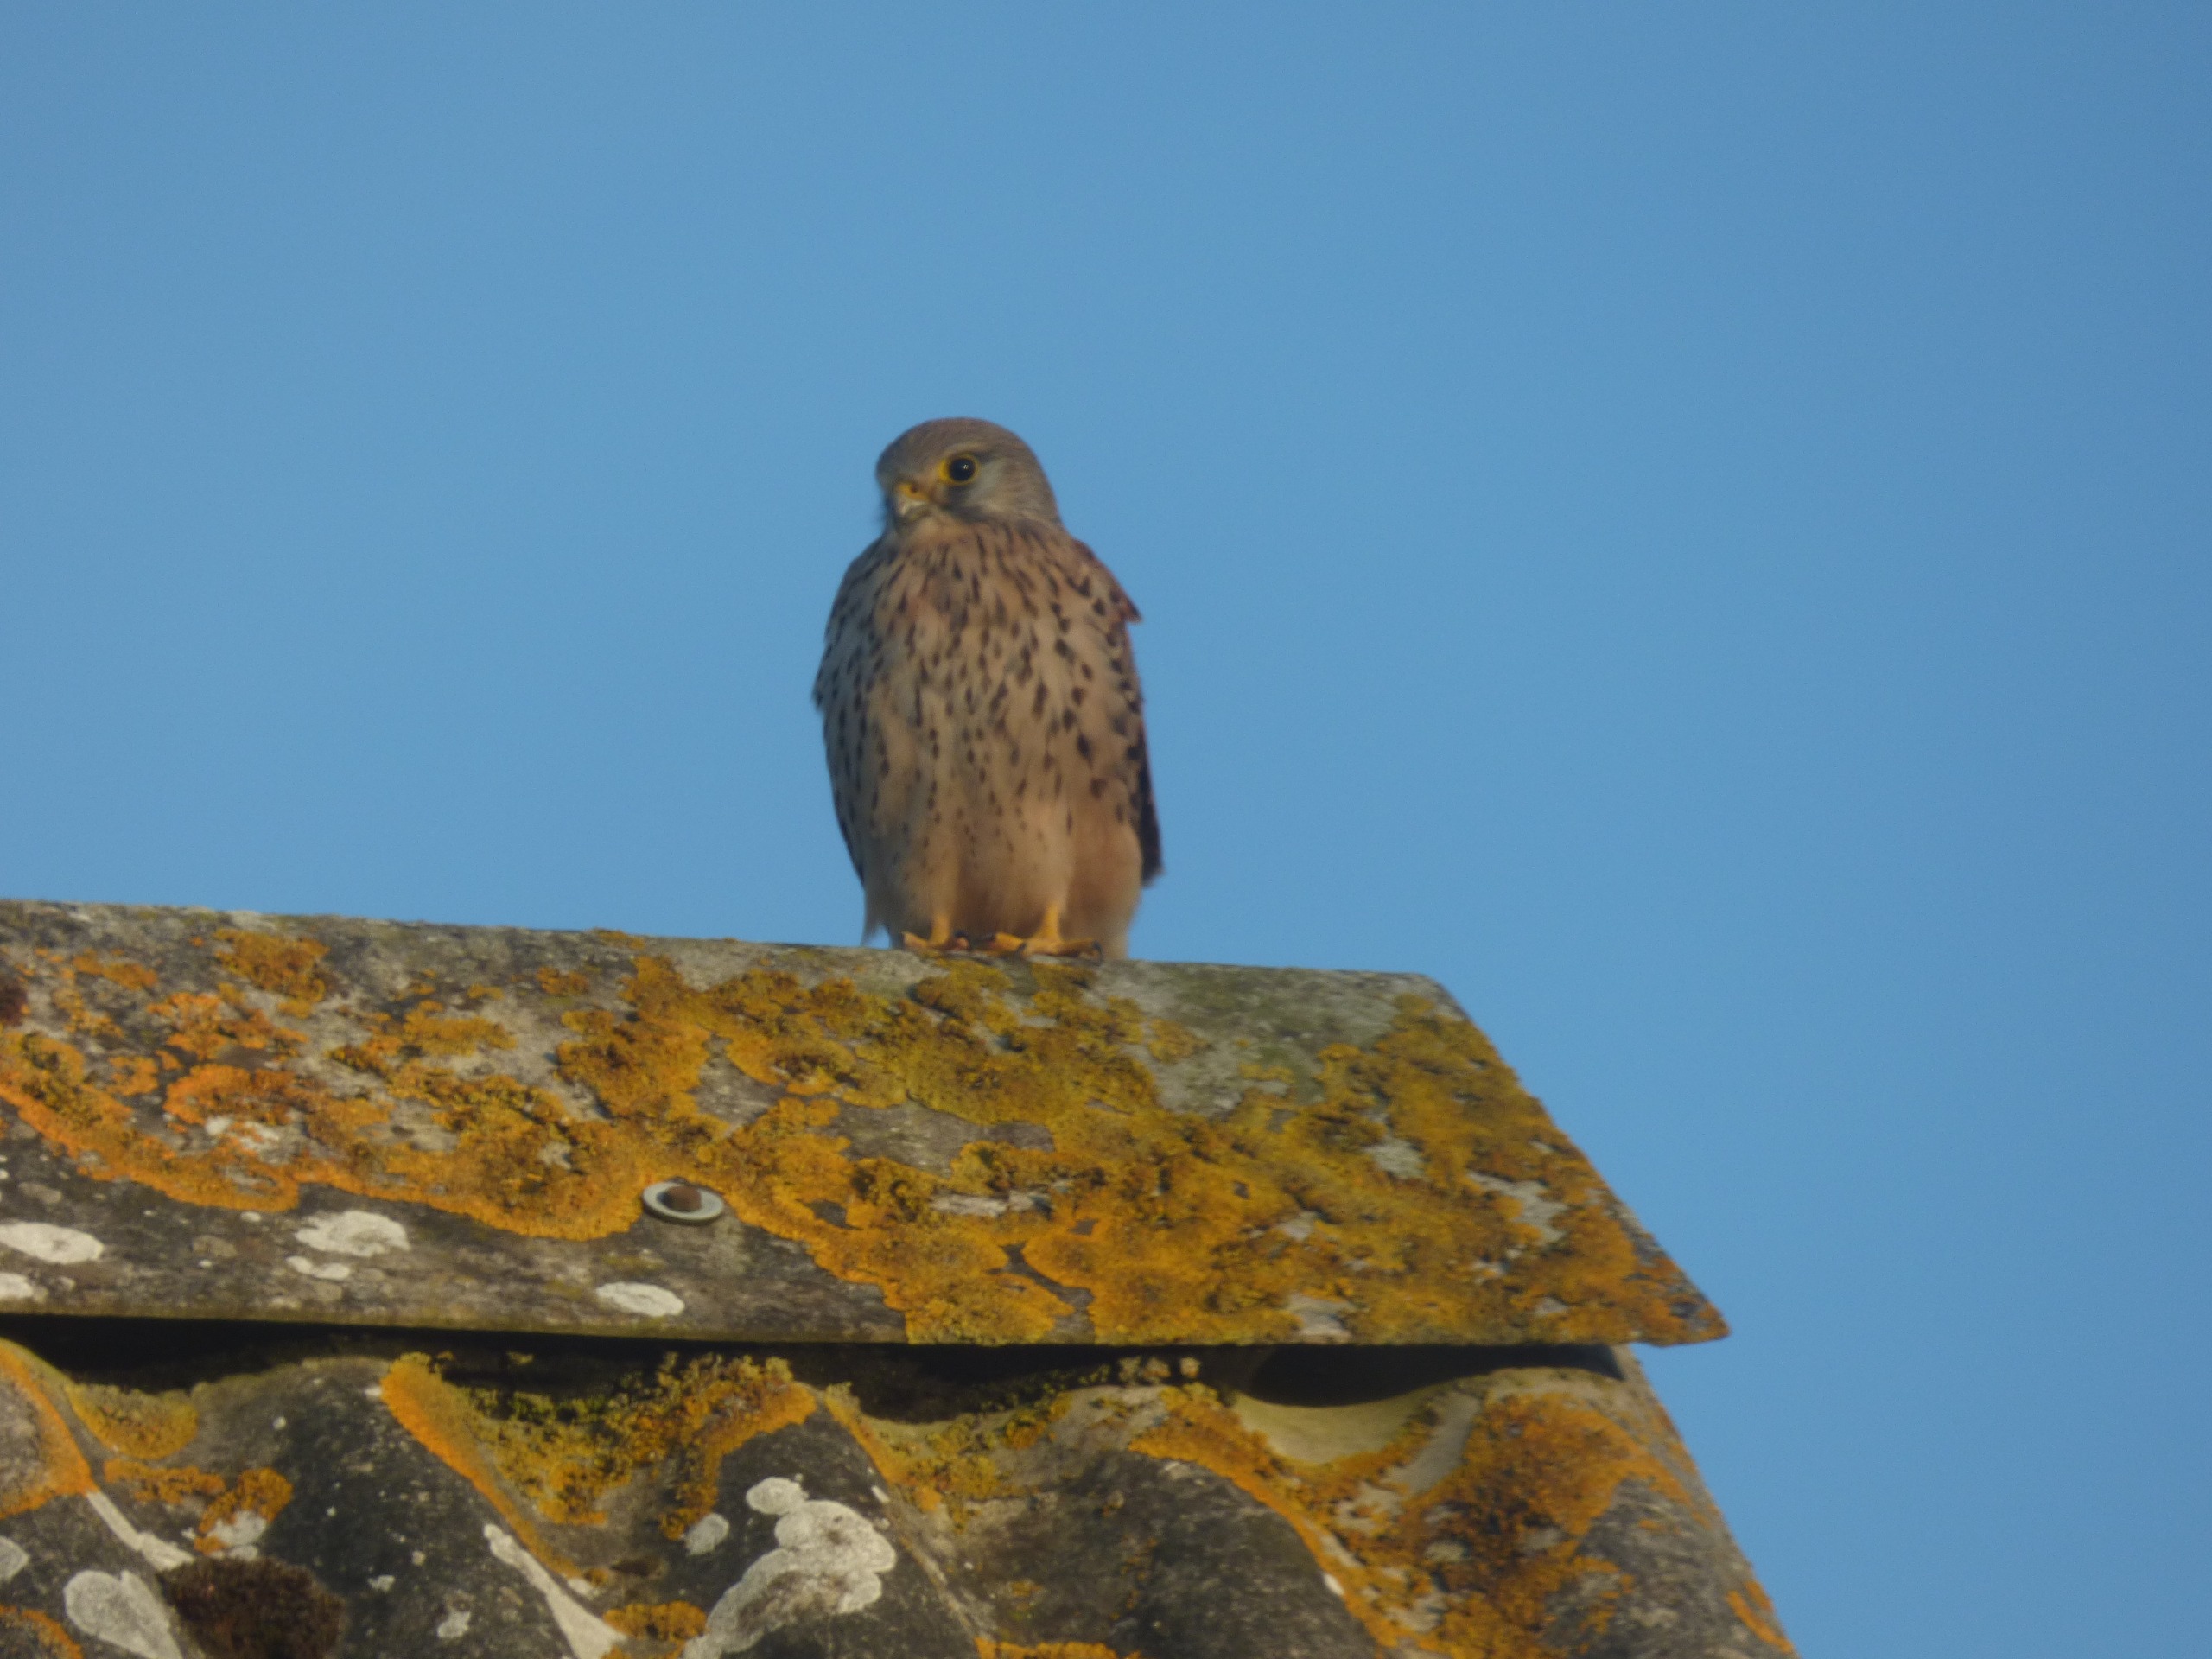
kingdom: Animalia
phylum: Chordata
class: Aves
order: Falconiformes
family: Falconidae
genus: Falco
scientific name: Falco tinnunculus
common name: Tårnfalk
